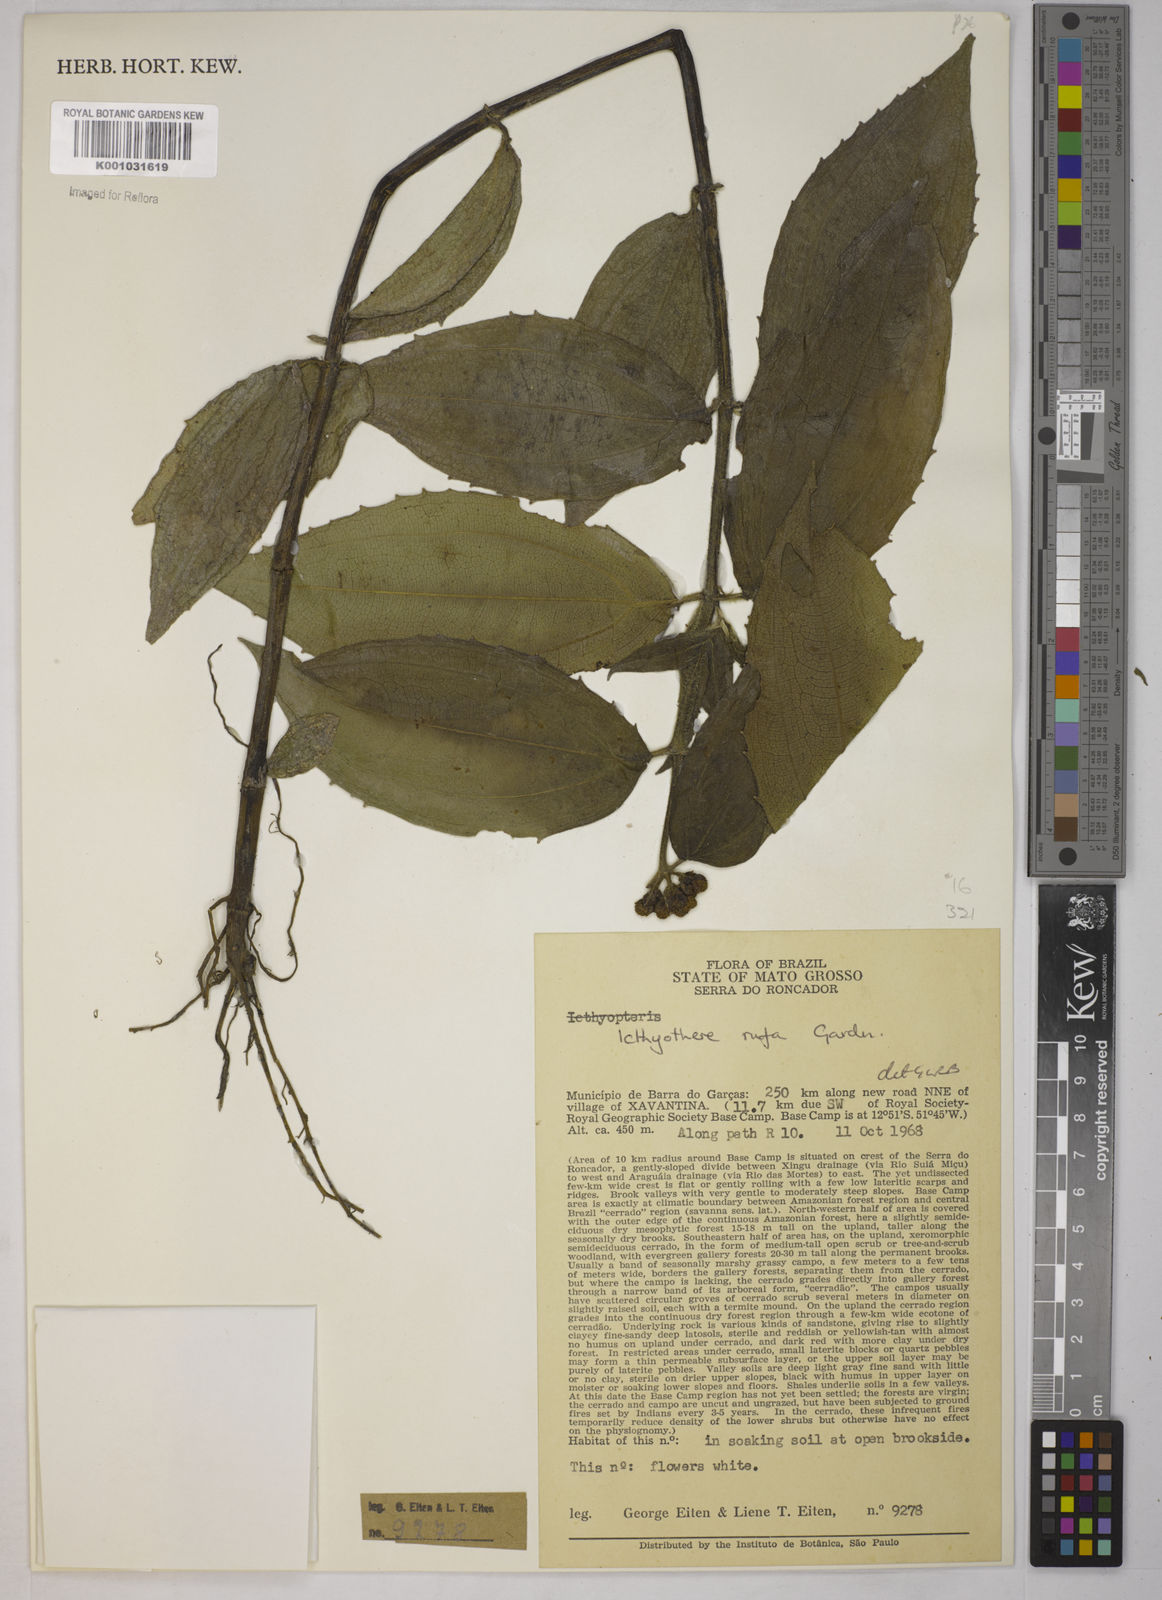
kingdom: Plantae
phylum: Tracheophyta
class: Magnoliopsida
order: Asterales
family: Asteraceae
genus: Ichthyothere
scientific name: Ichthyothere rufa
